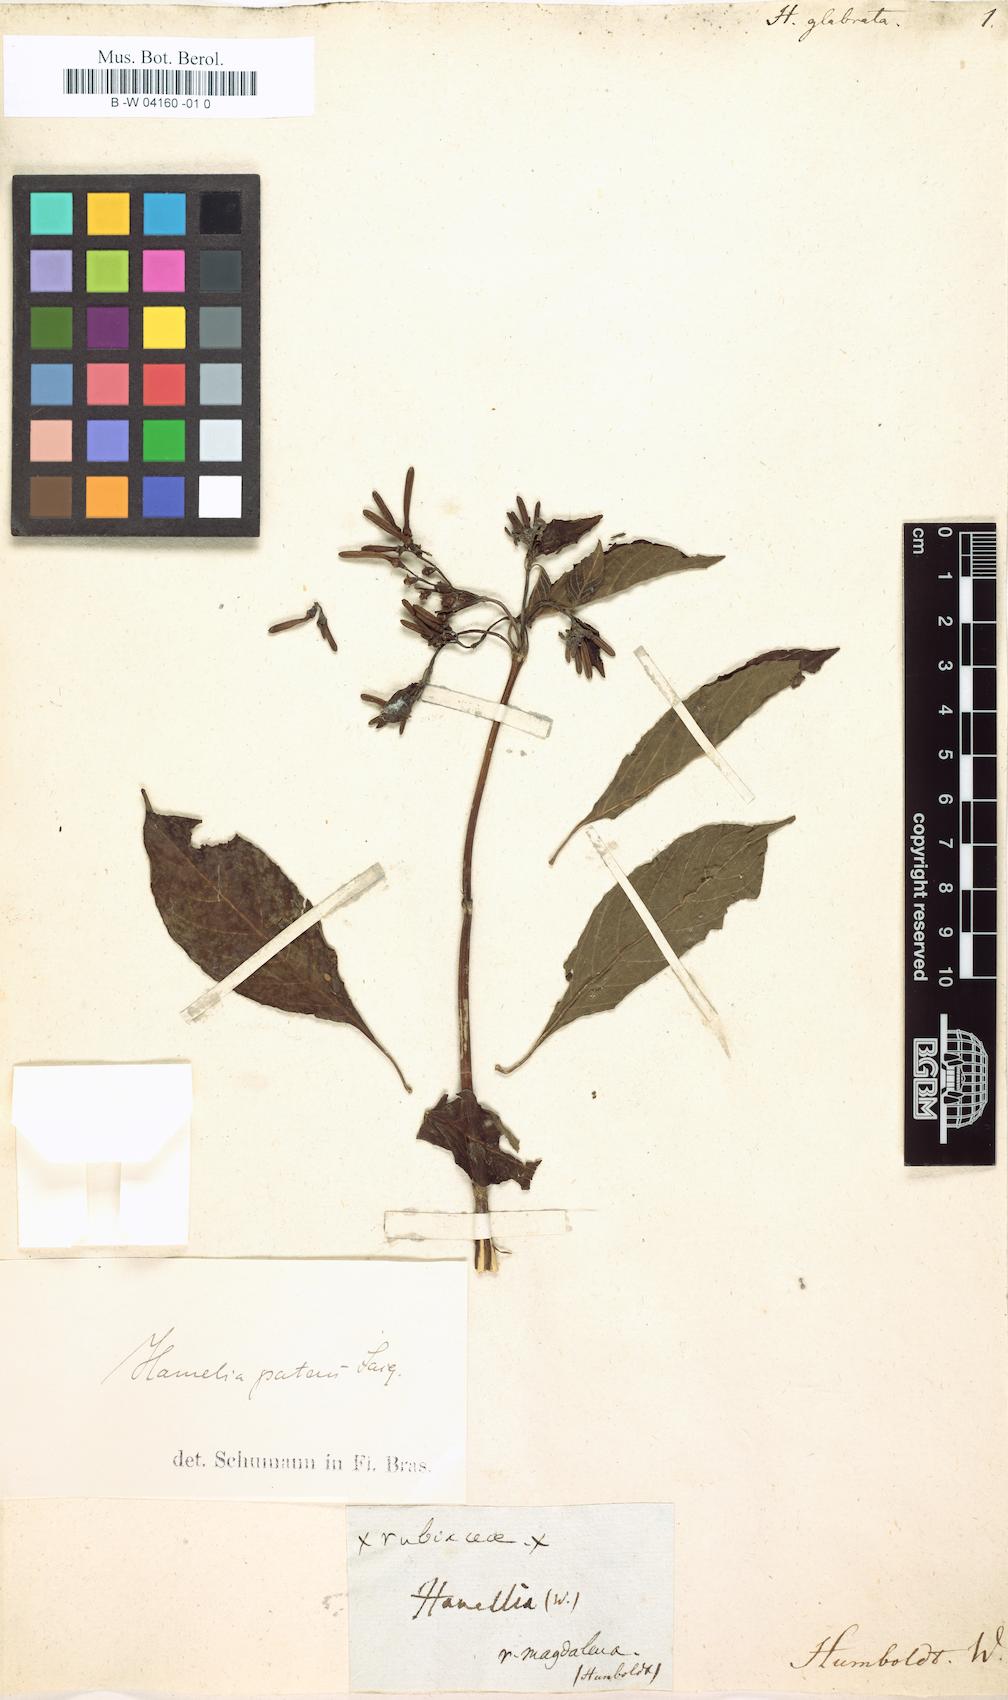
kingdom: Plantae
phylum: Tracheophyta
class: Magnoliopsida
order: Gentianales
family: Rubiaceae
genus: Amaioua
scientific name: Amaioua guianensis
